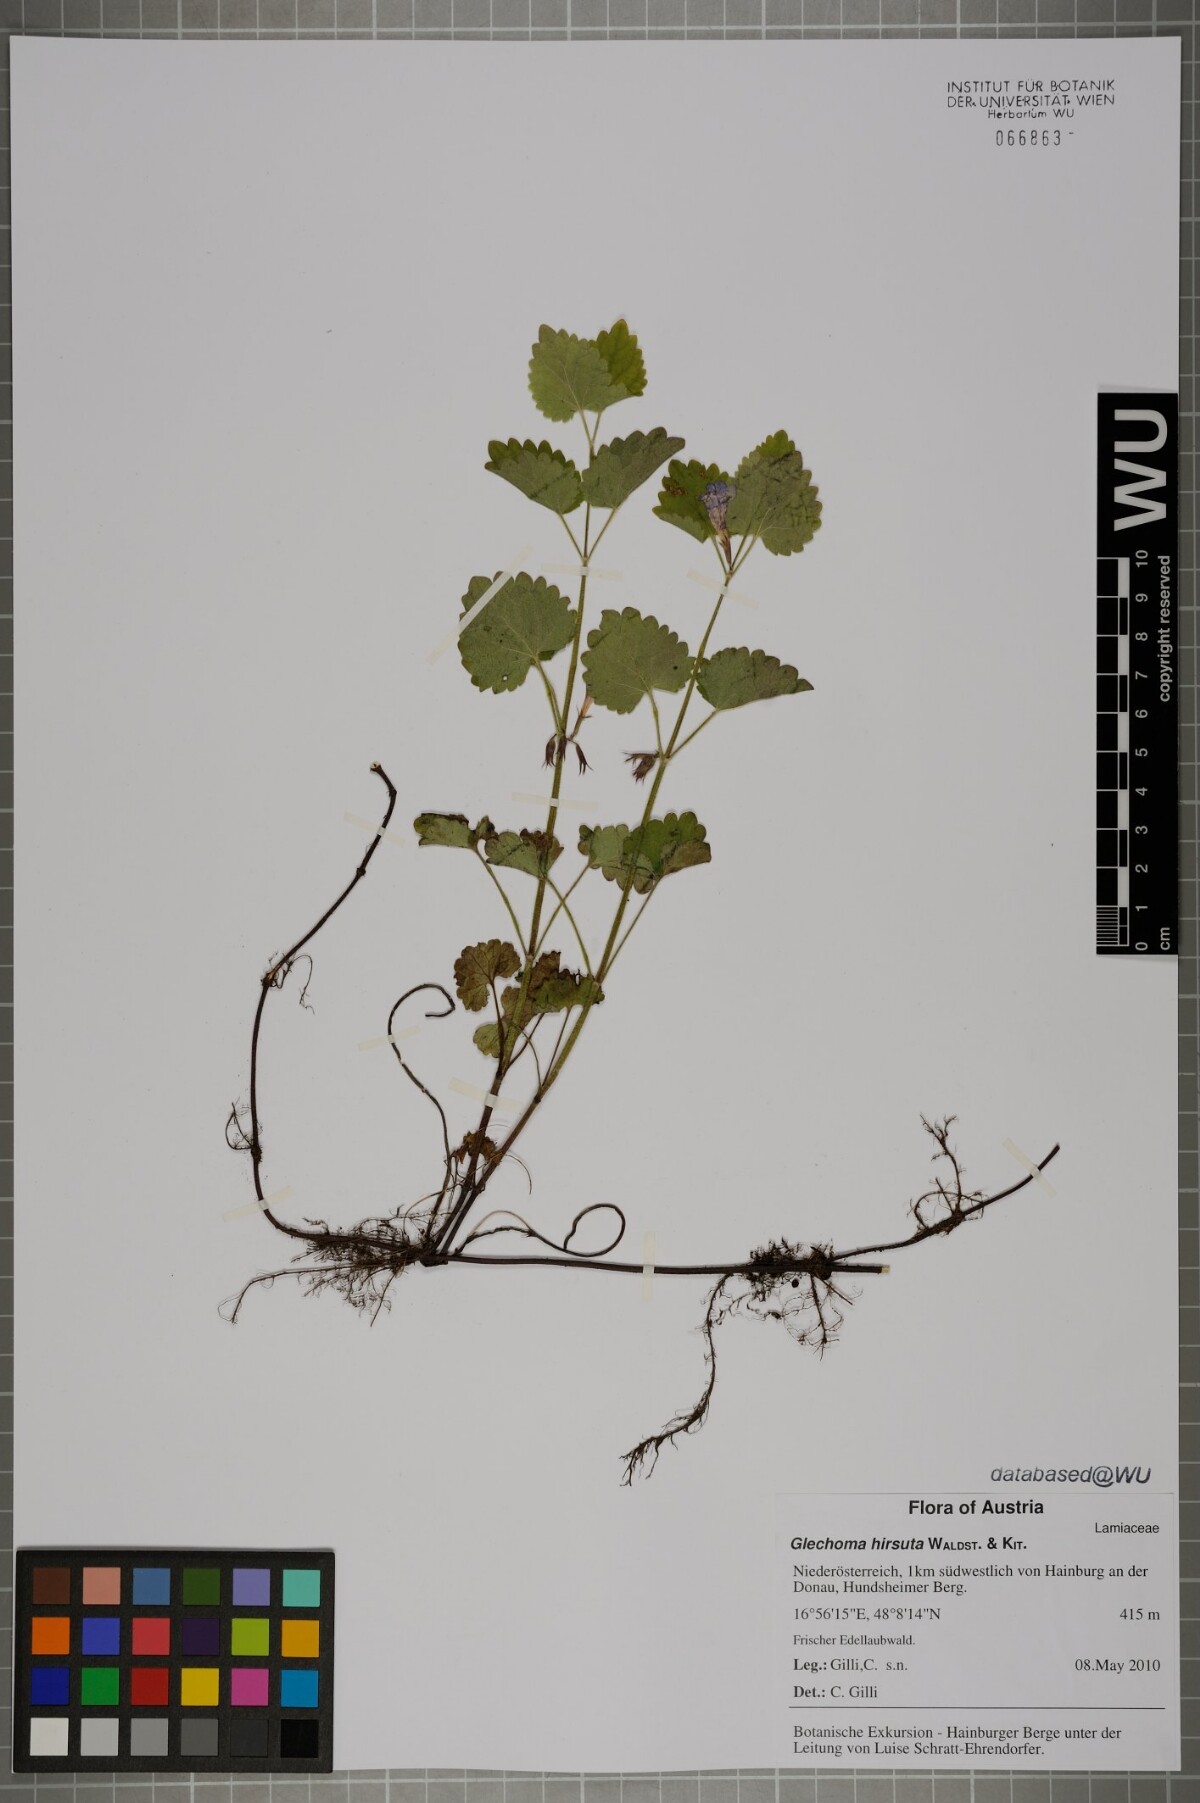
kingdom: Plantae
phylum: Tracheophyta
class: Magnoliopsida
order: Lamiales
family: Lamiaceae
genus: Glechoma
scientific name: Glechoma hirsuta
